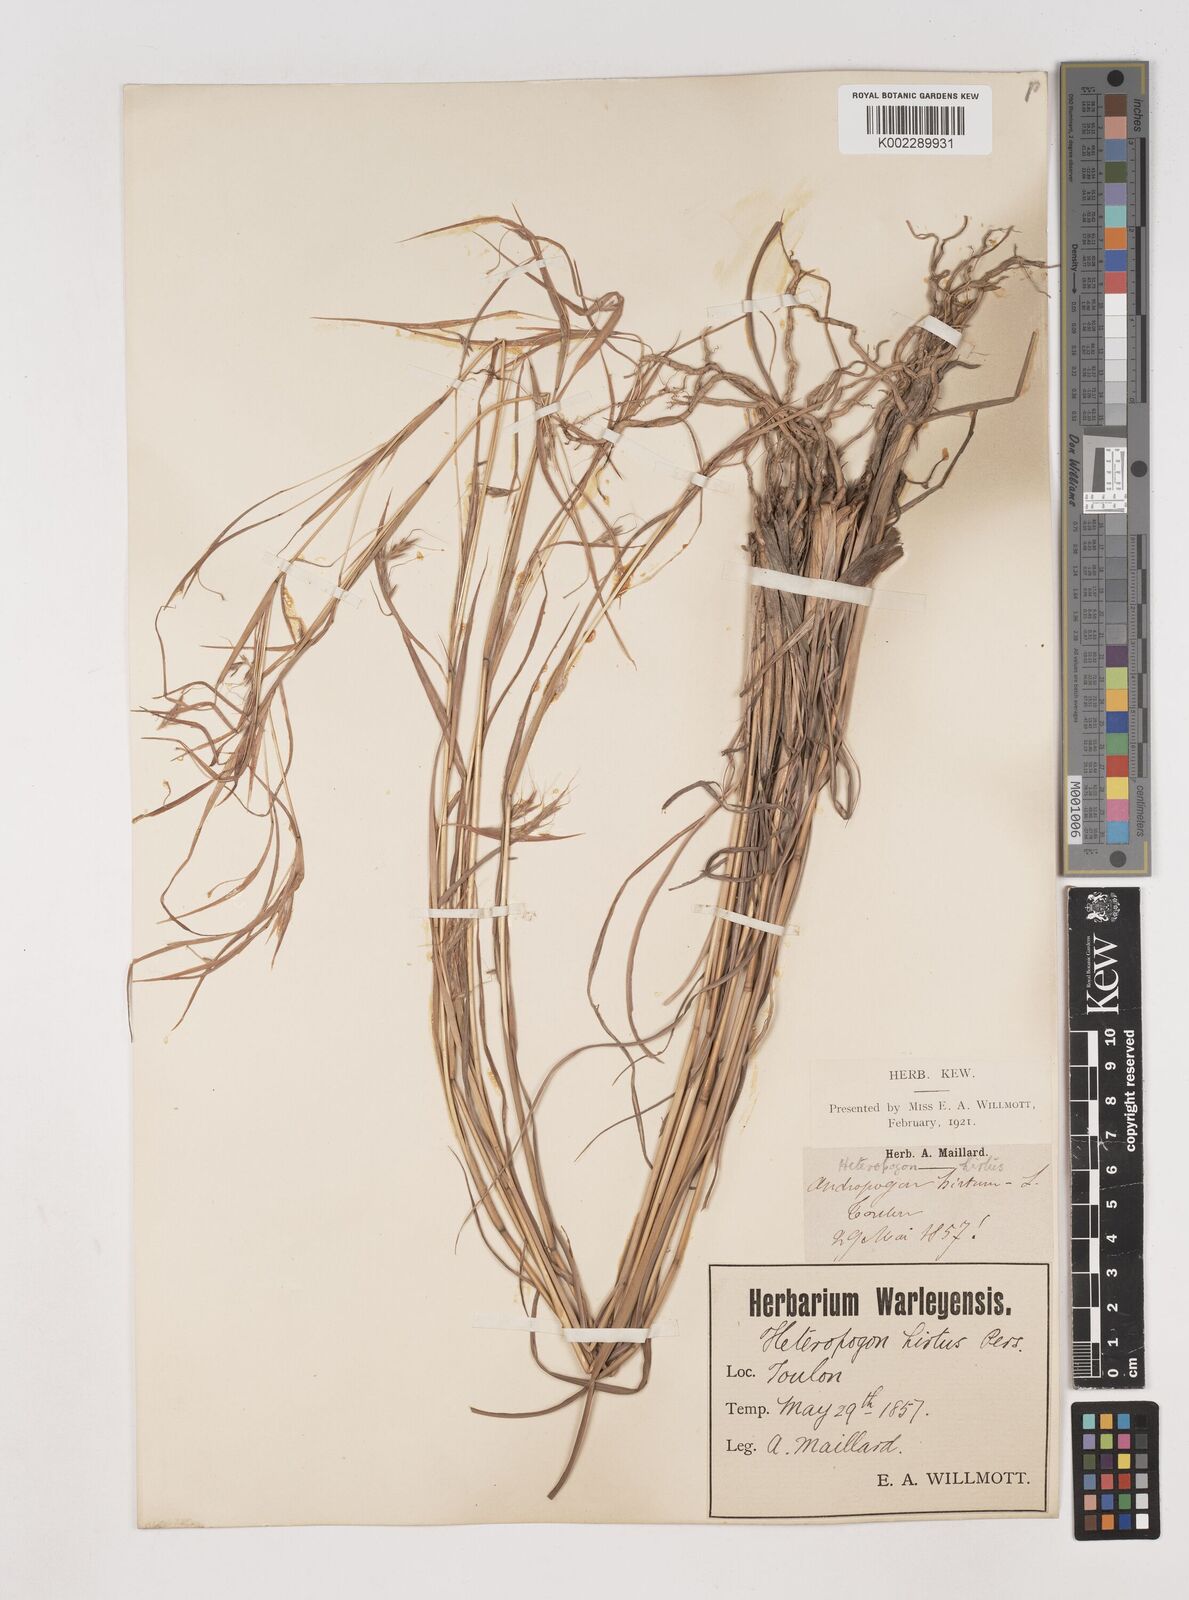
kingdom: Plantae
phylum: Tracheophyta
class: Liliopsida
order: Poales
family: Poaceae
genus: Hyparrhenia
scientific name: Hyparrhenia hirta
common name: Thatching grass
